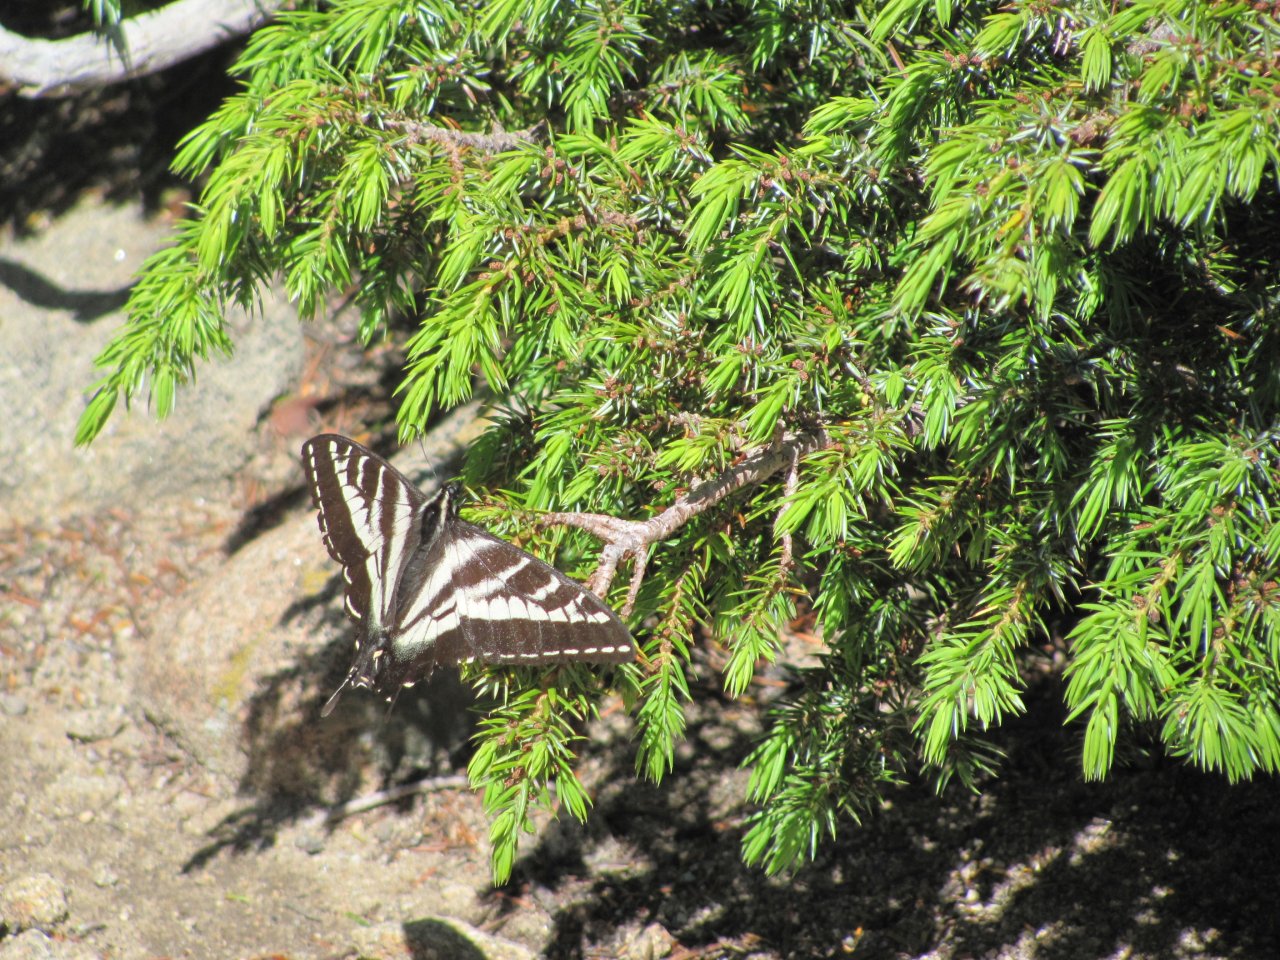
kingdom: Animalia
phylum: Arthropoda
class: Insecta
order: Lepidoptera
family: Papilionidae
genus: Pterourus
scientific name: Pterourus eurymedon
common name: Pale Swallowtail
